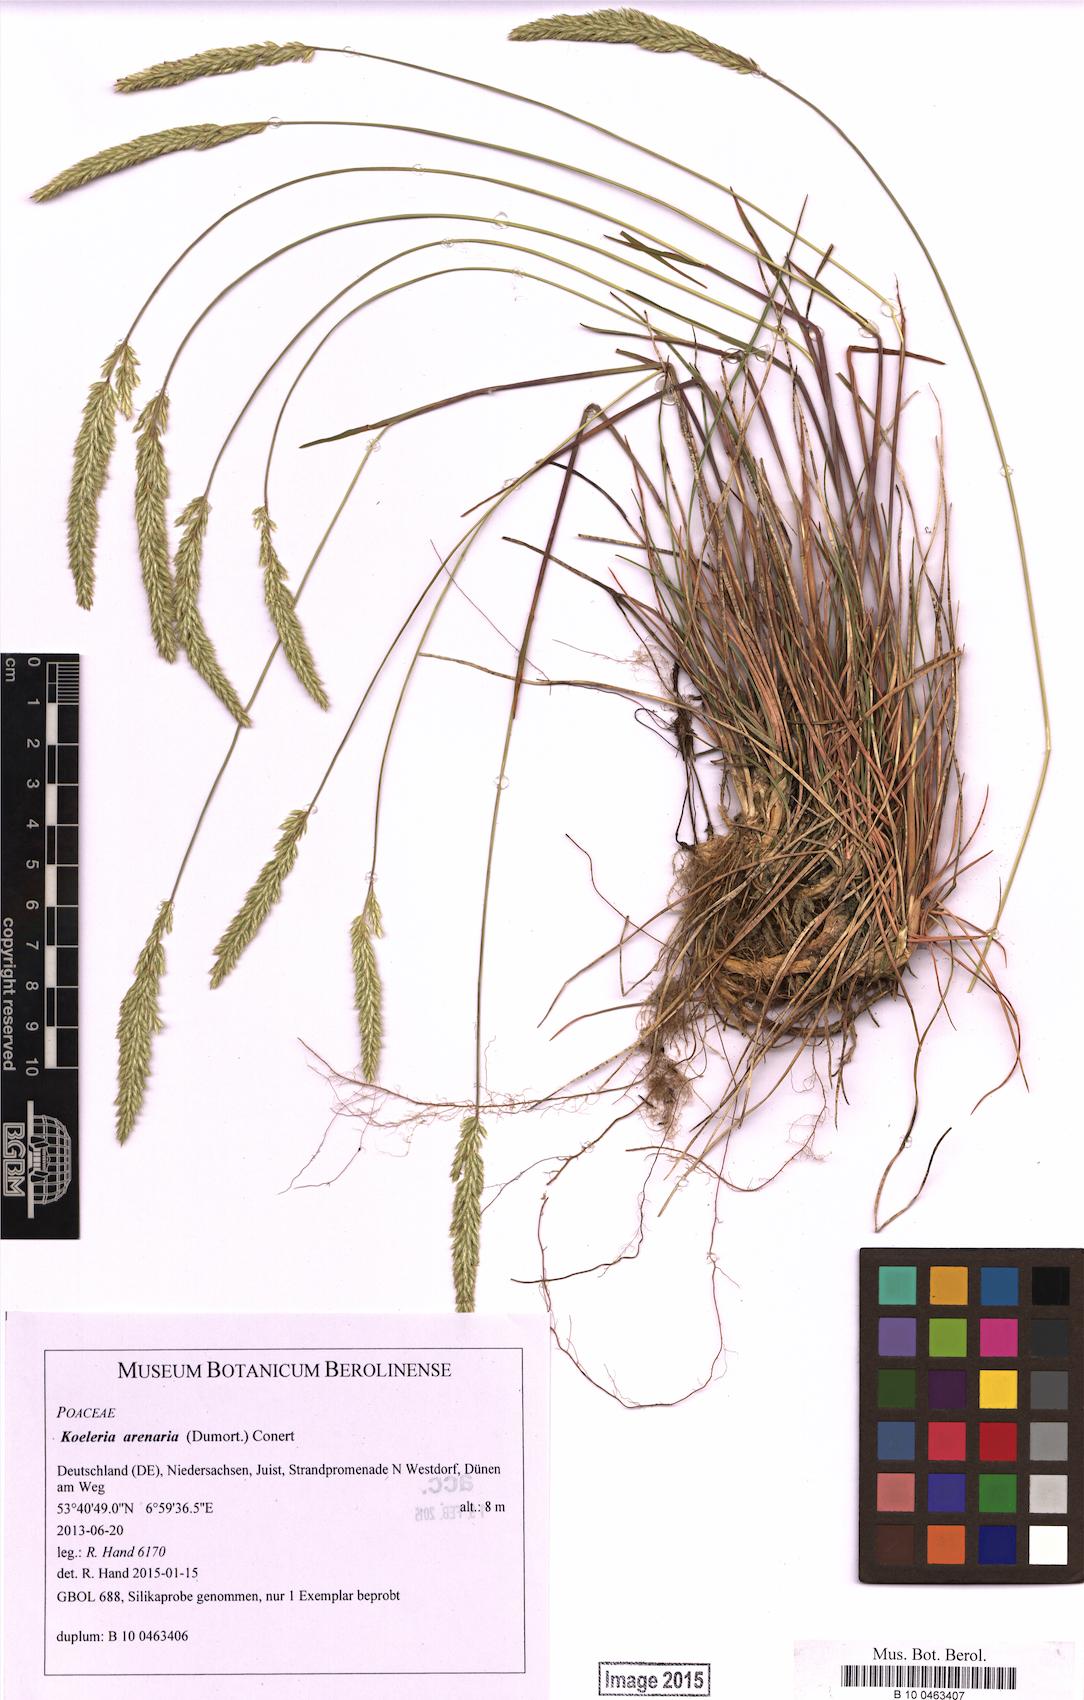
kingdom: Plantae
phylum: Tracheophyta
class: Liliopsida
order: Poales
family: Poaceae
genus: Koeleria
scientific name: Koeleria glauca
